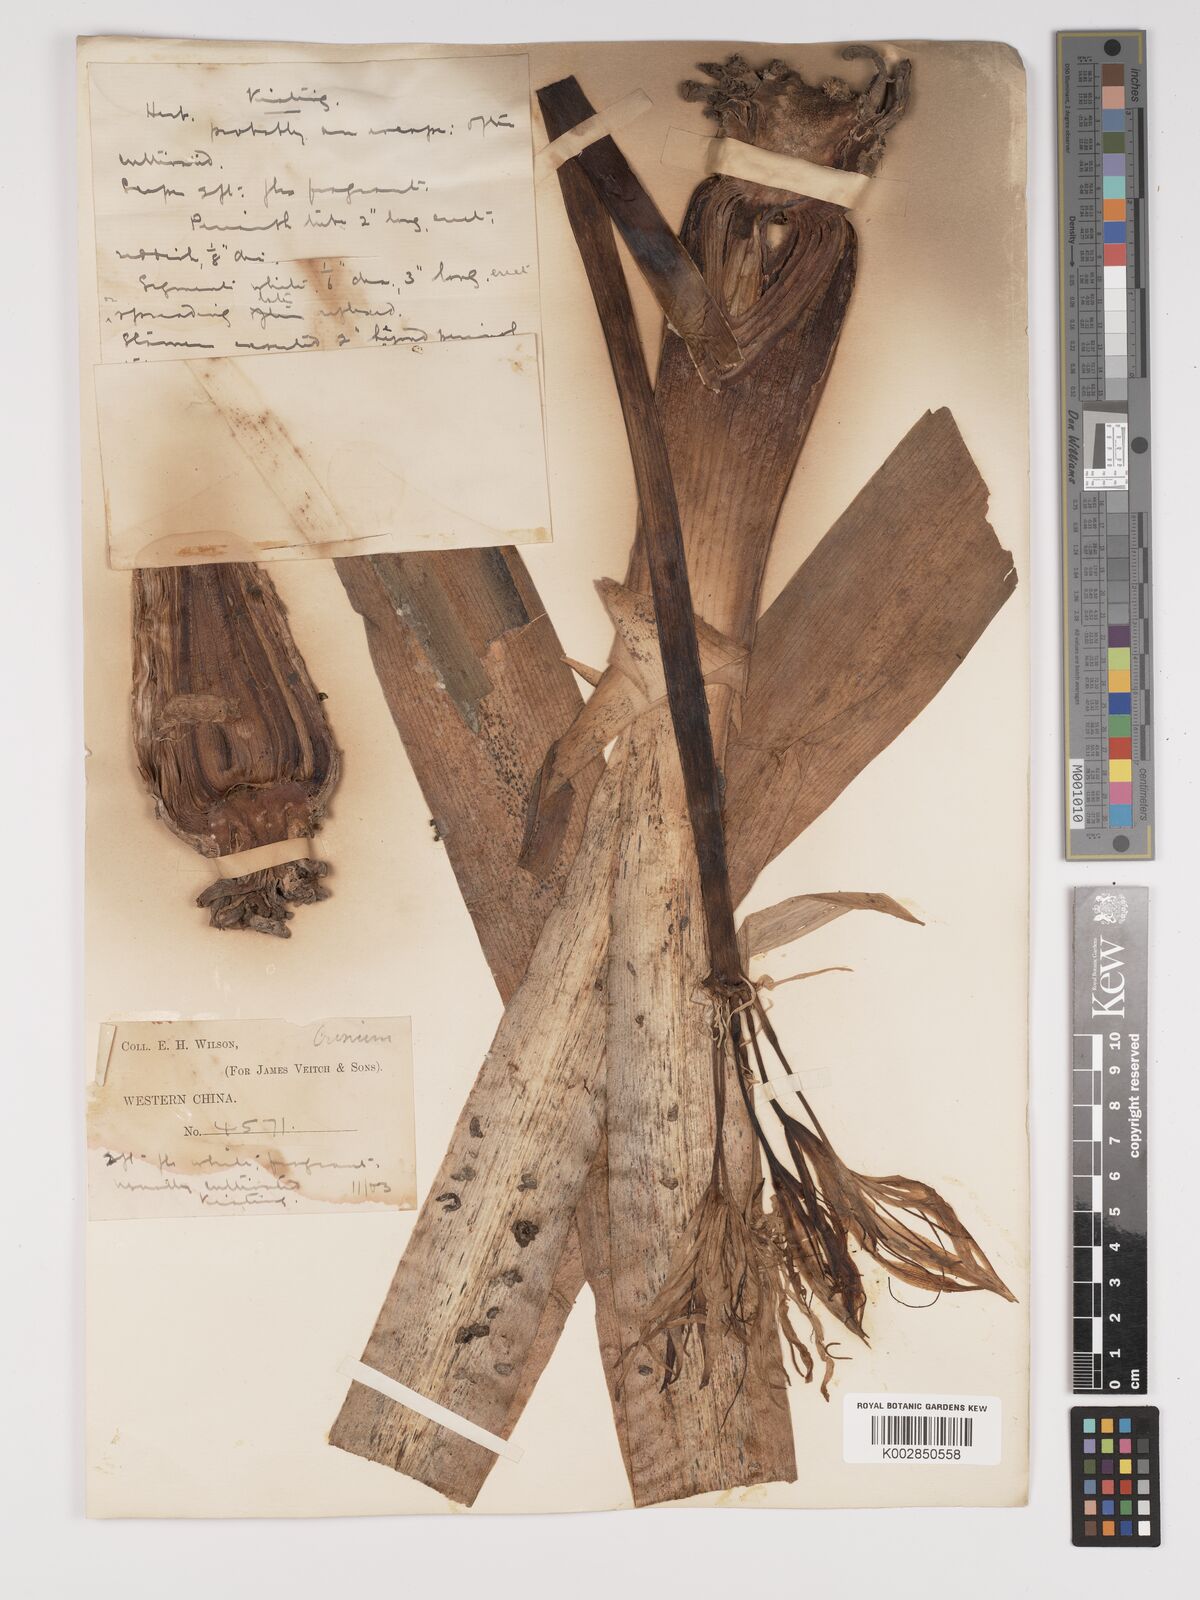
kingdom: Plantae
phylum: Tracheophyta
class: Liliopsida
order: Asparagales
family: Amaryllidaceae
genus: Crinum
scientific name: Crinum asiaticum
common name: Poisonbulb
